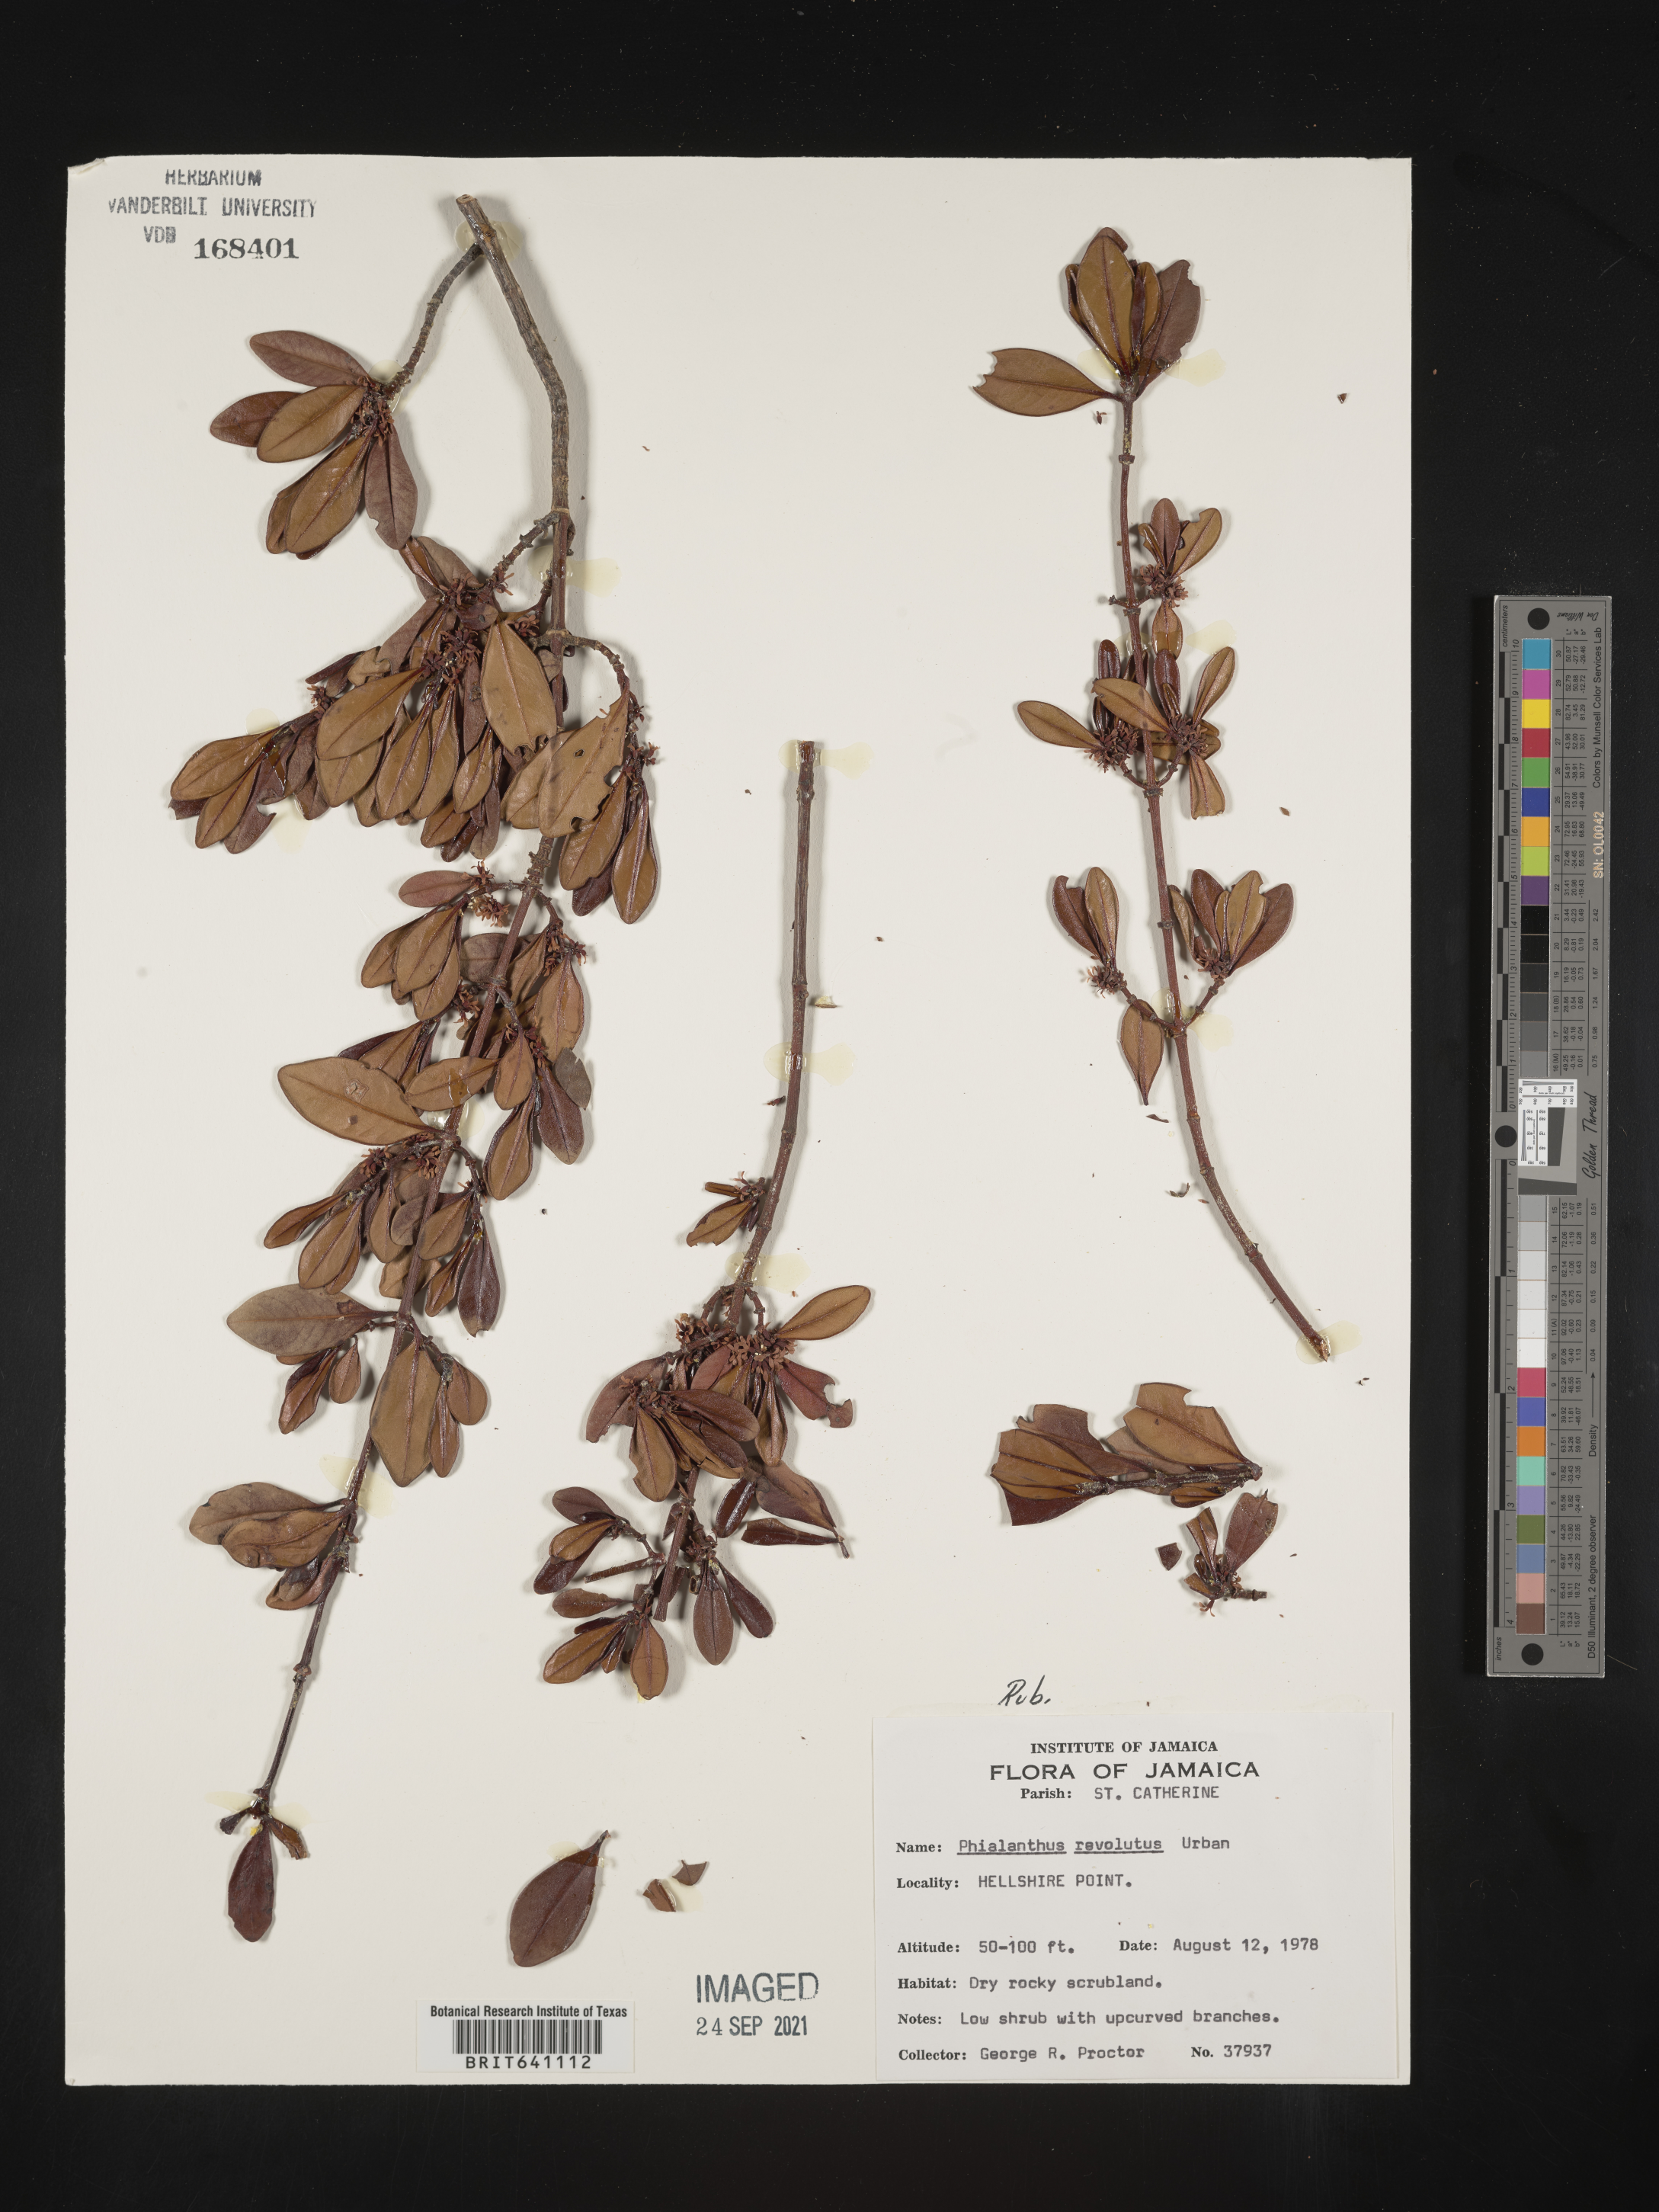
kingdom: Plantae
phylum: Tracheophyta
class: Magnoliopsida
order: Gentianales
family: Rubiaceae
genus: Phialanthus
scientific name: Phialanthus
